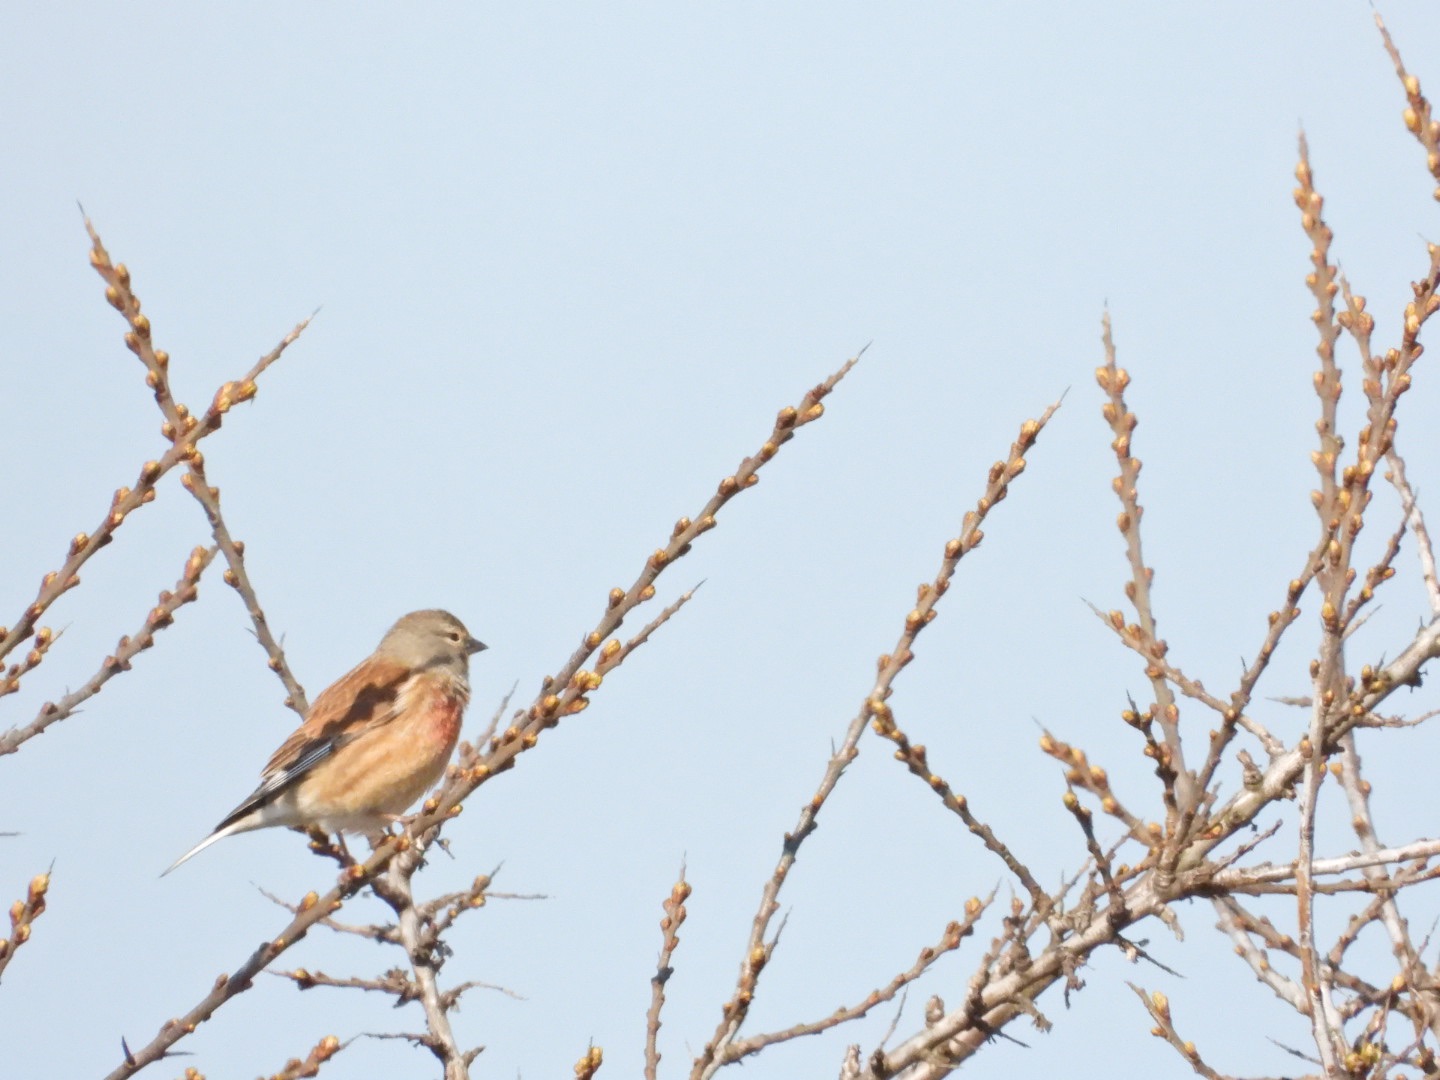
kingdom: Animalia
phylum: Chordata
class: Aves
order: Passeriformes
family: Fringillidae
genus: Linaria
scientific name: Linaria cannabina
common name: Tornirisk
